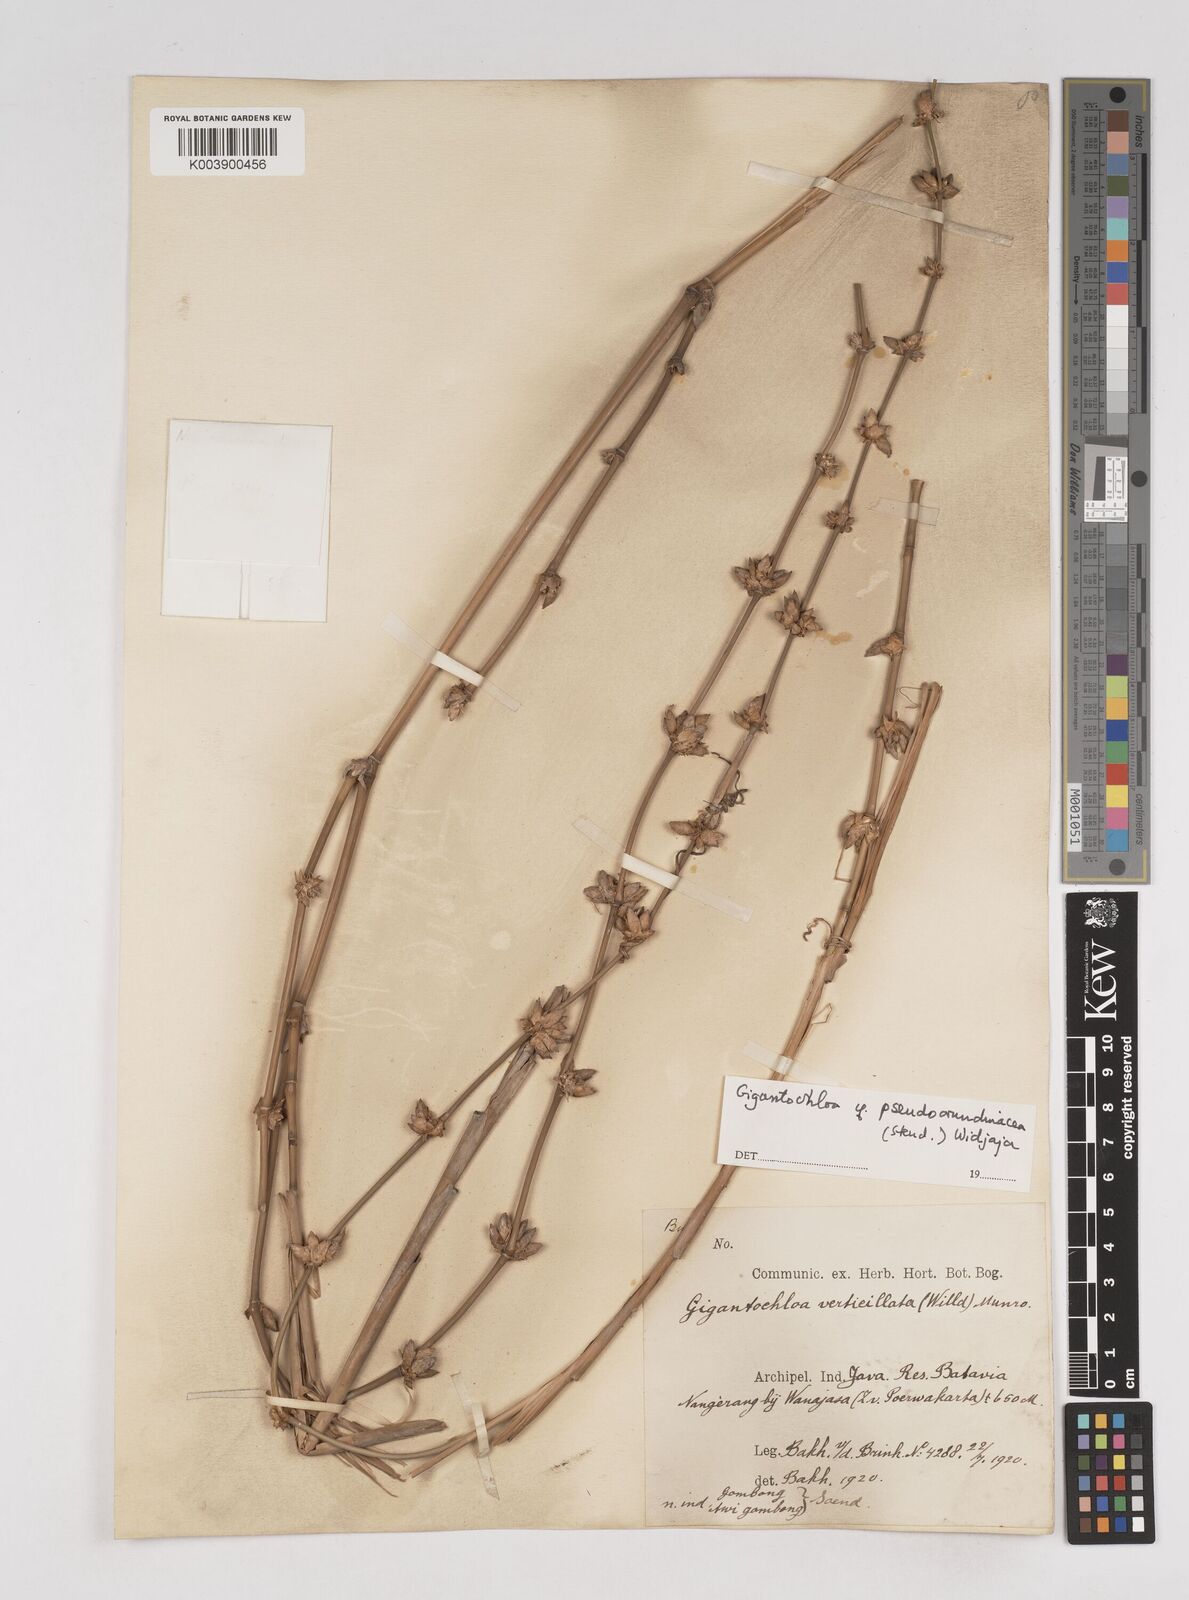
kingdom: Plantae
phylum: Tracheophyta
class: Liliopsida
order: Poales
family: Poaceae
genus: Gigantochloa
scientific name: Gigantochloa verticillata
